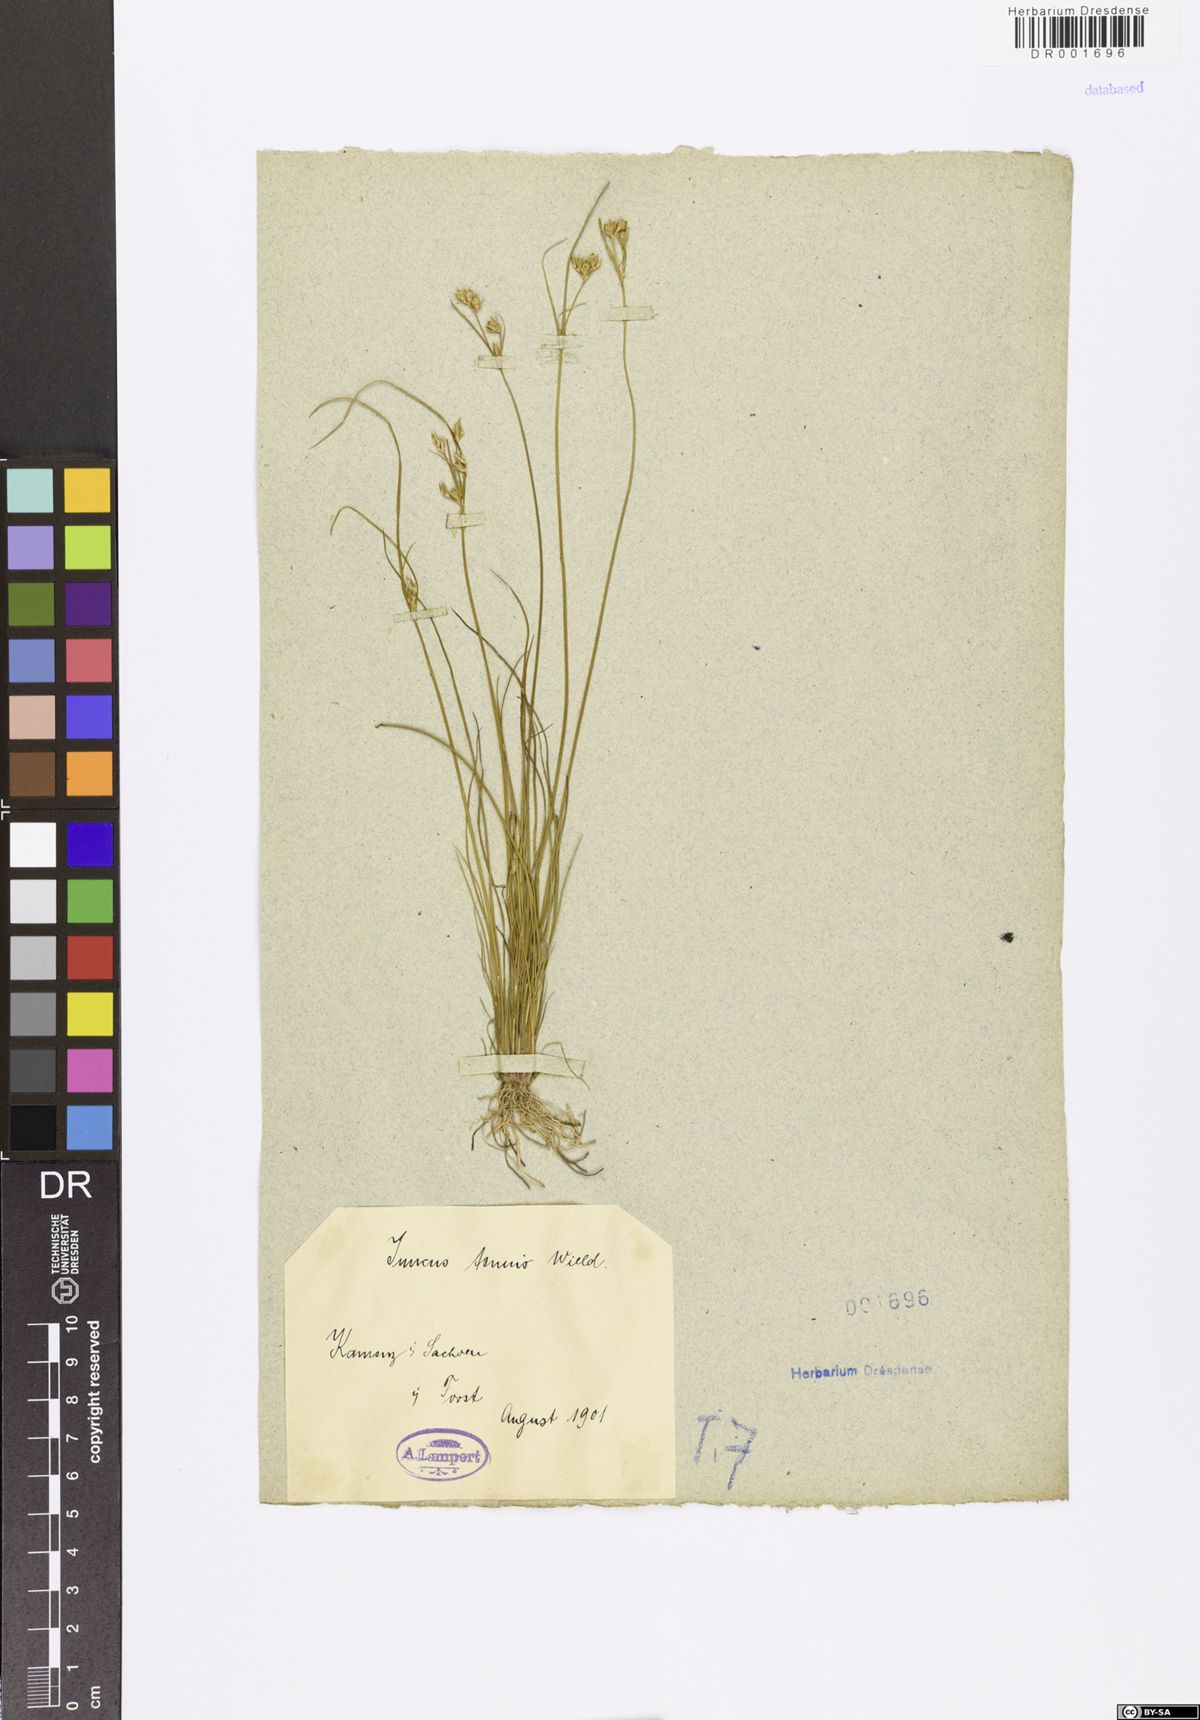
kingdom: Plantae
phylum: Tracheophyta
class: Liliopsida
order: Poales
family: Juncaceae
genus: Juncus
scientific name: Juncus tenuis
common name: Slender rush
